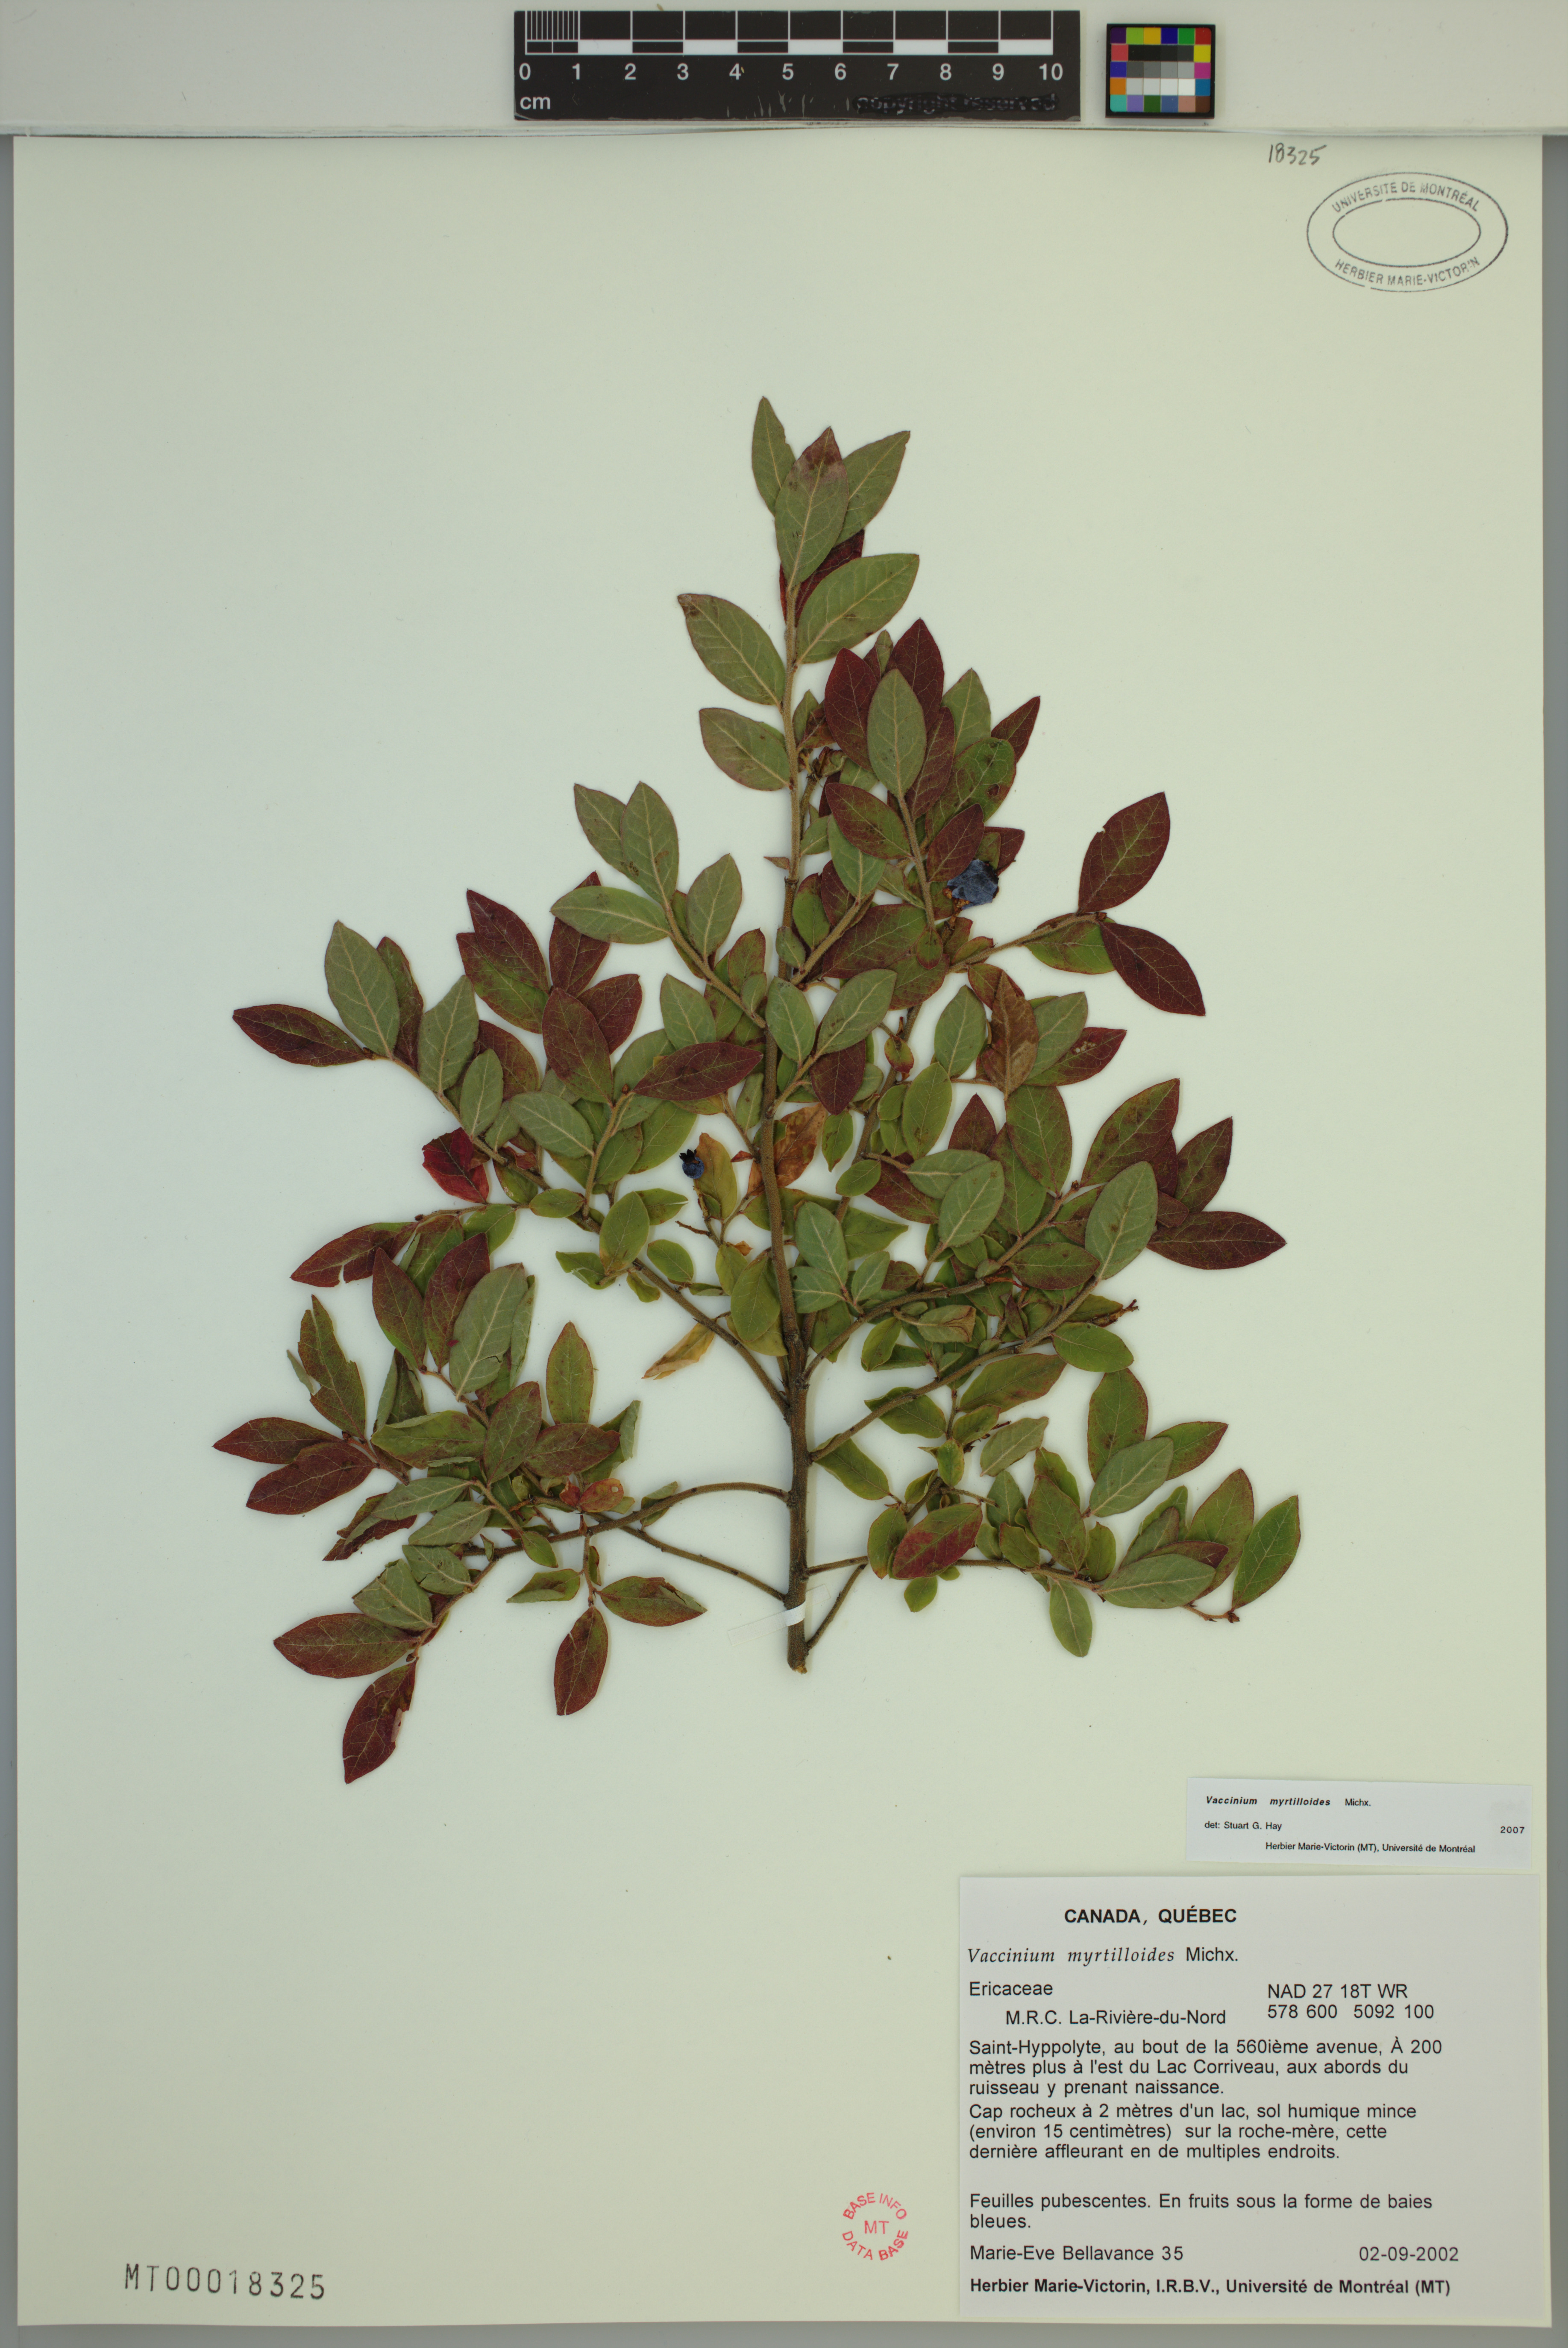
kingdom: Plantae
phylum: Tracheophyta
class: Magnoliopsida
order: Ericales
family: Ericaceae
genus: Vaccinium
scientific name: Vaccinium myrtilloides
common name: Canada blueberry
